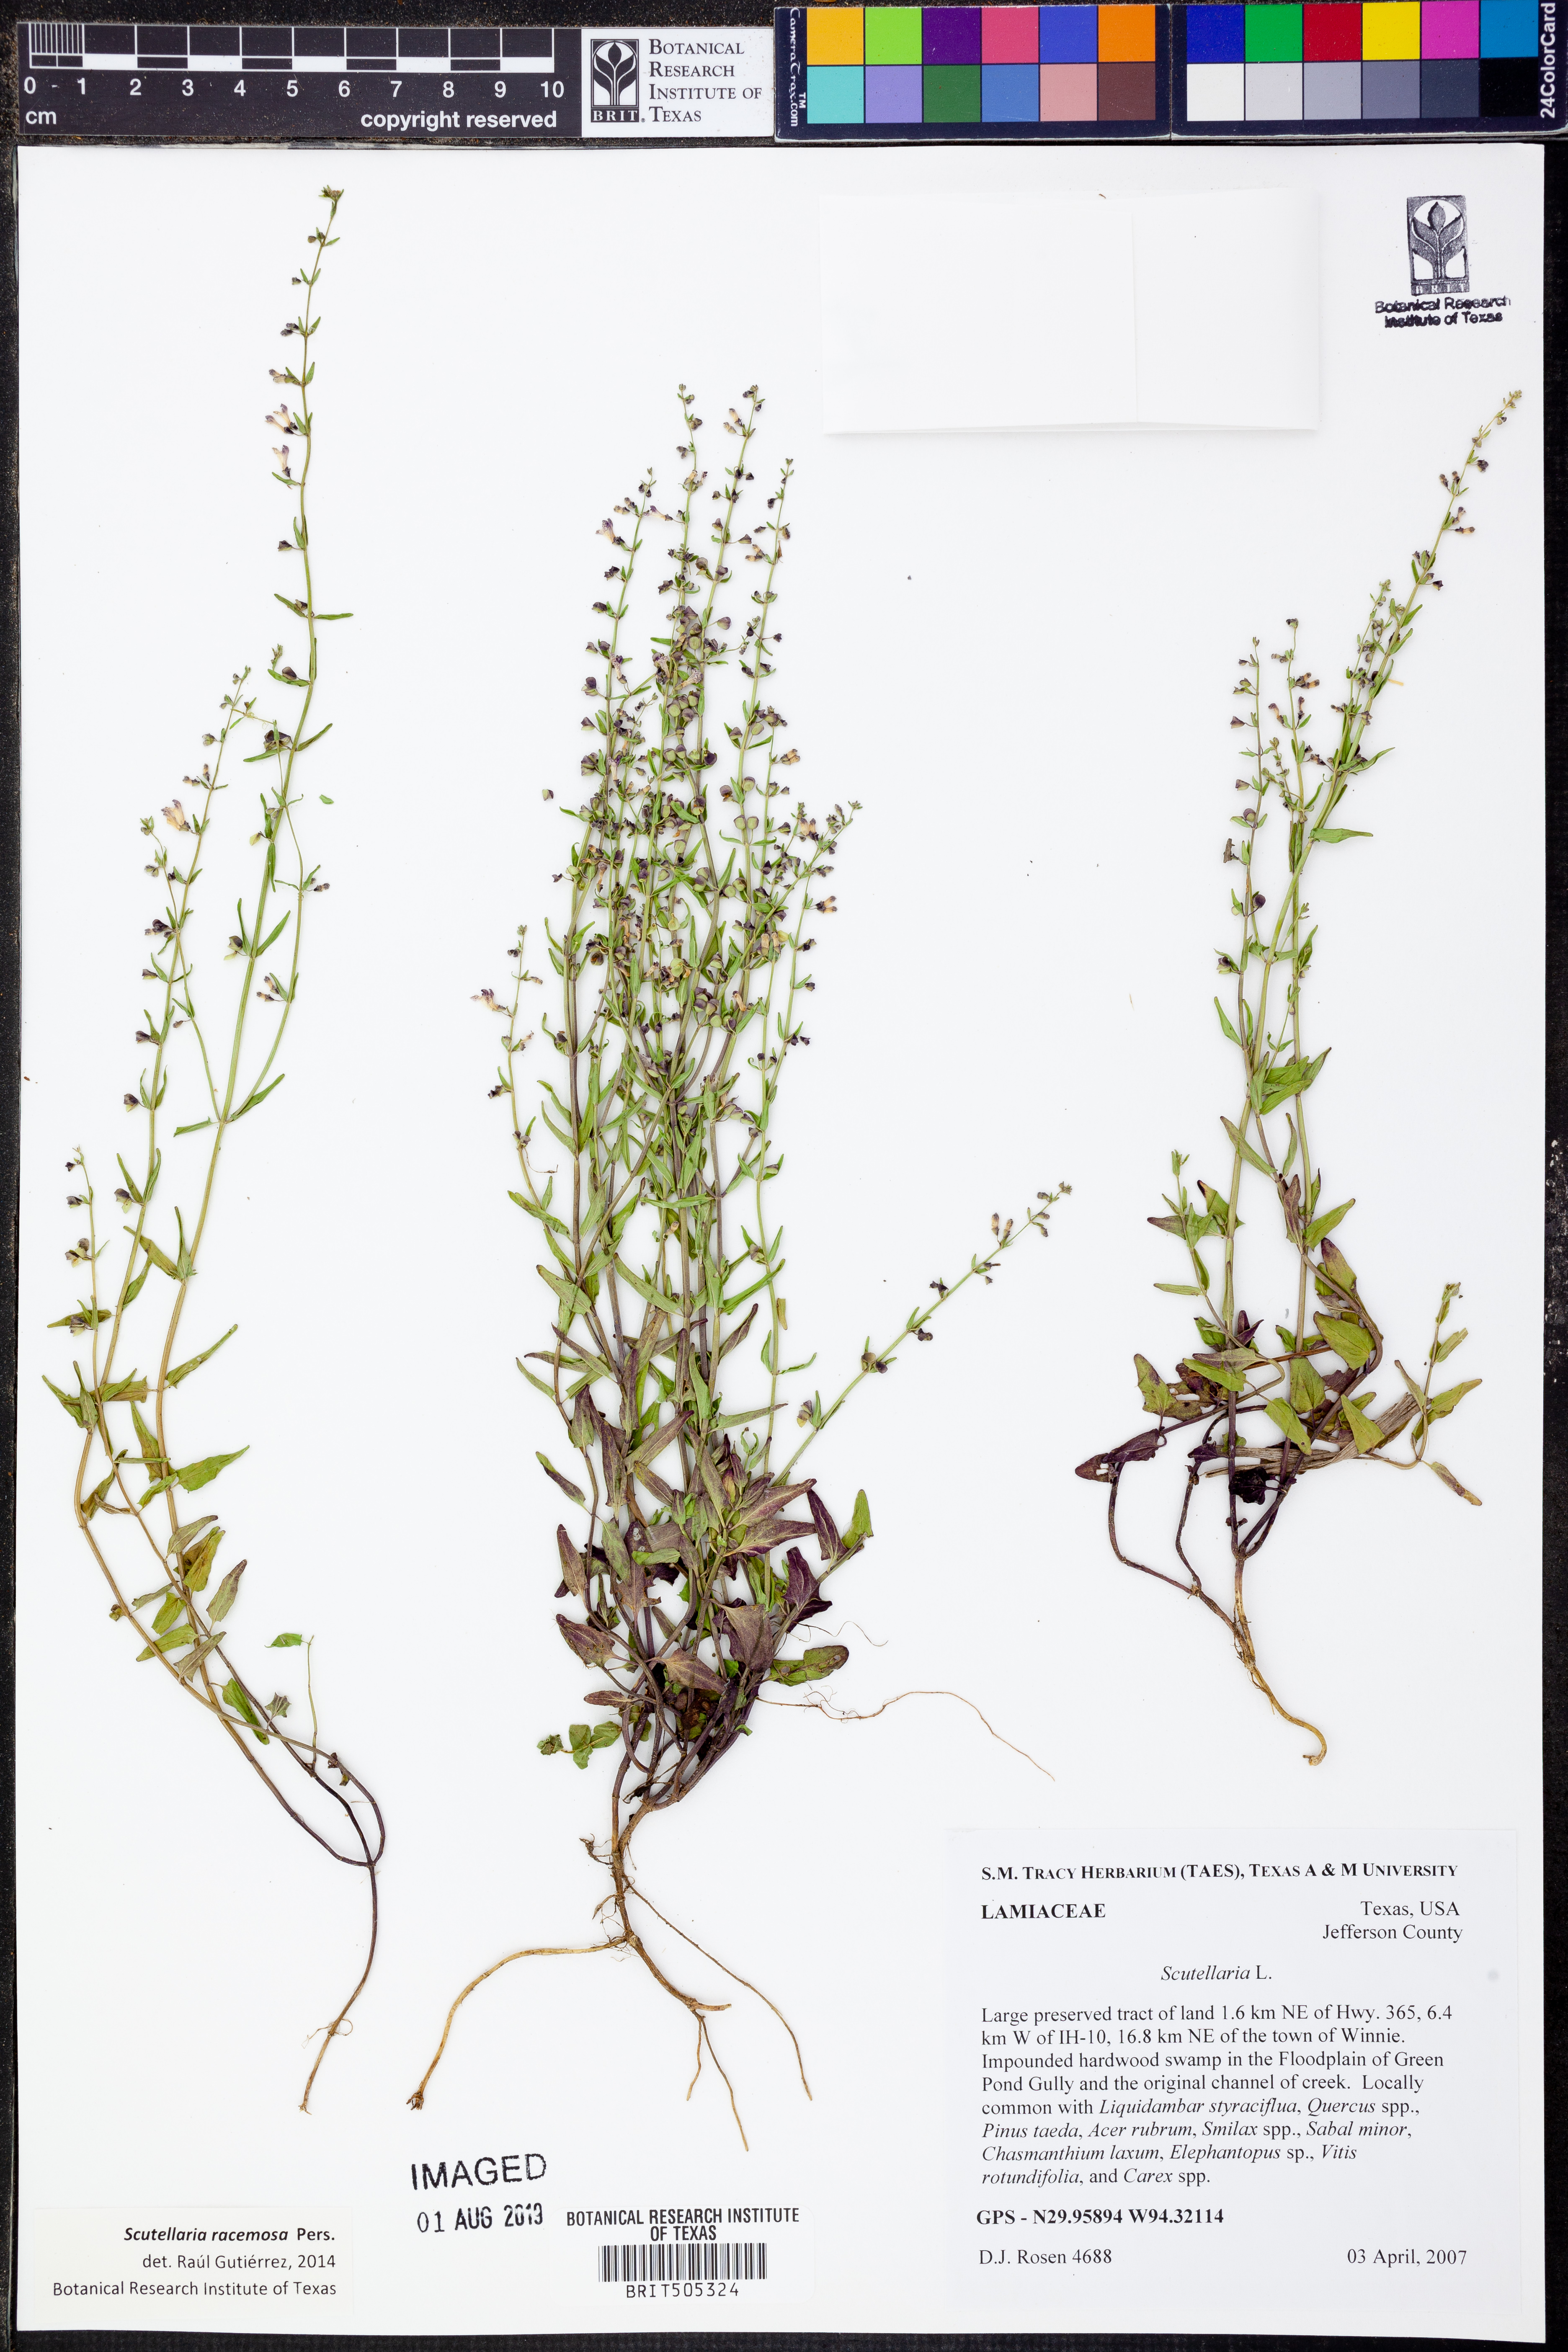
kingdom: Plantae
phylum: Tracheophyta
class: Magnoliopsida
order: Lamiales
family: Lamiaceae
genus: Scutellaria
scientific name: Scutellaria racemosa
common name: South american skullcap
